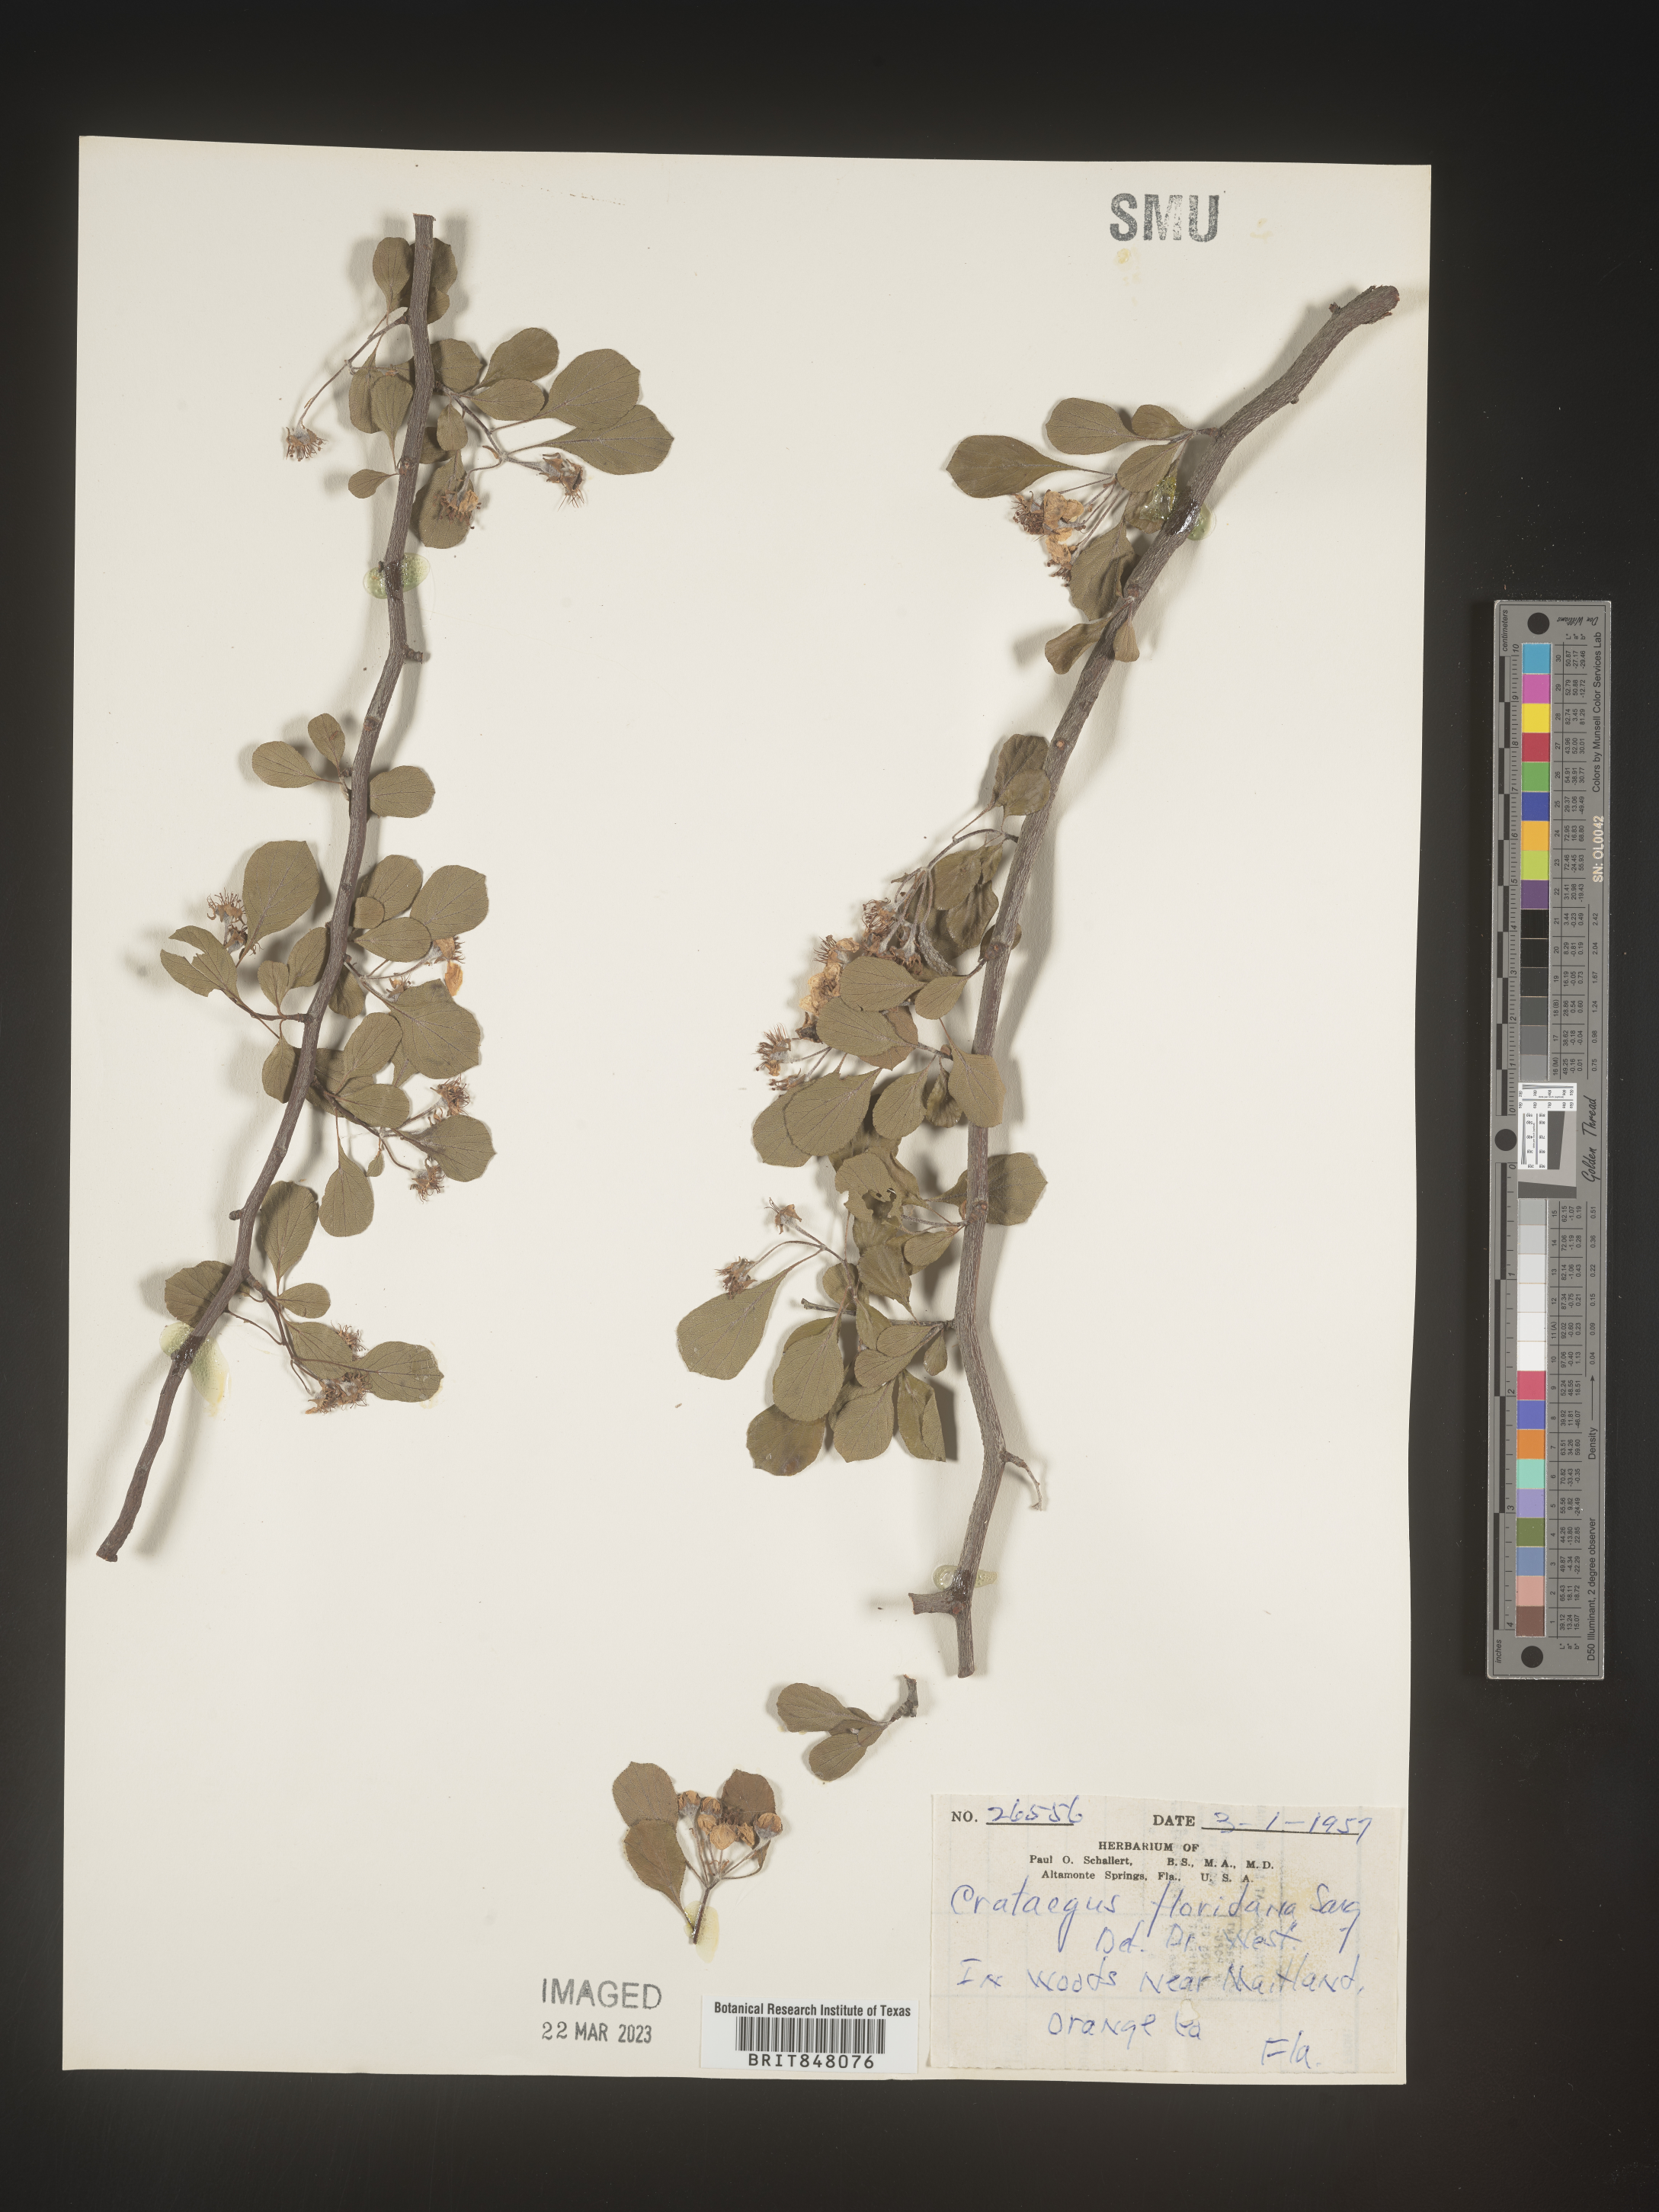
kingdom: Plantae
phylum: Tracheophyta
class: Magnoliopsida
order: Rosales
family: Rosaceae
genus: Crataegus
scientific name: Crataegus
